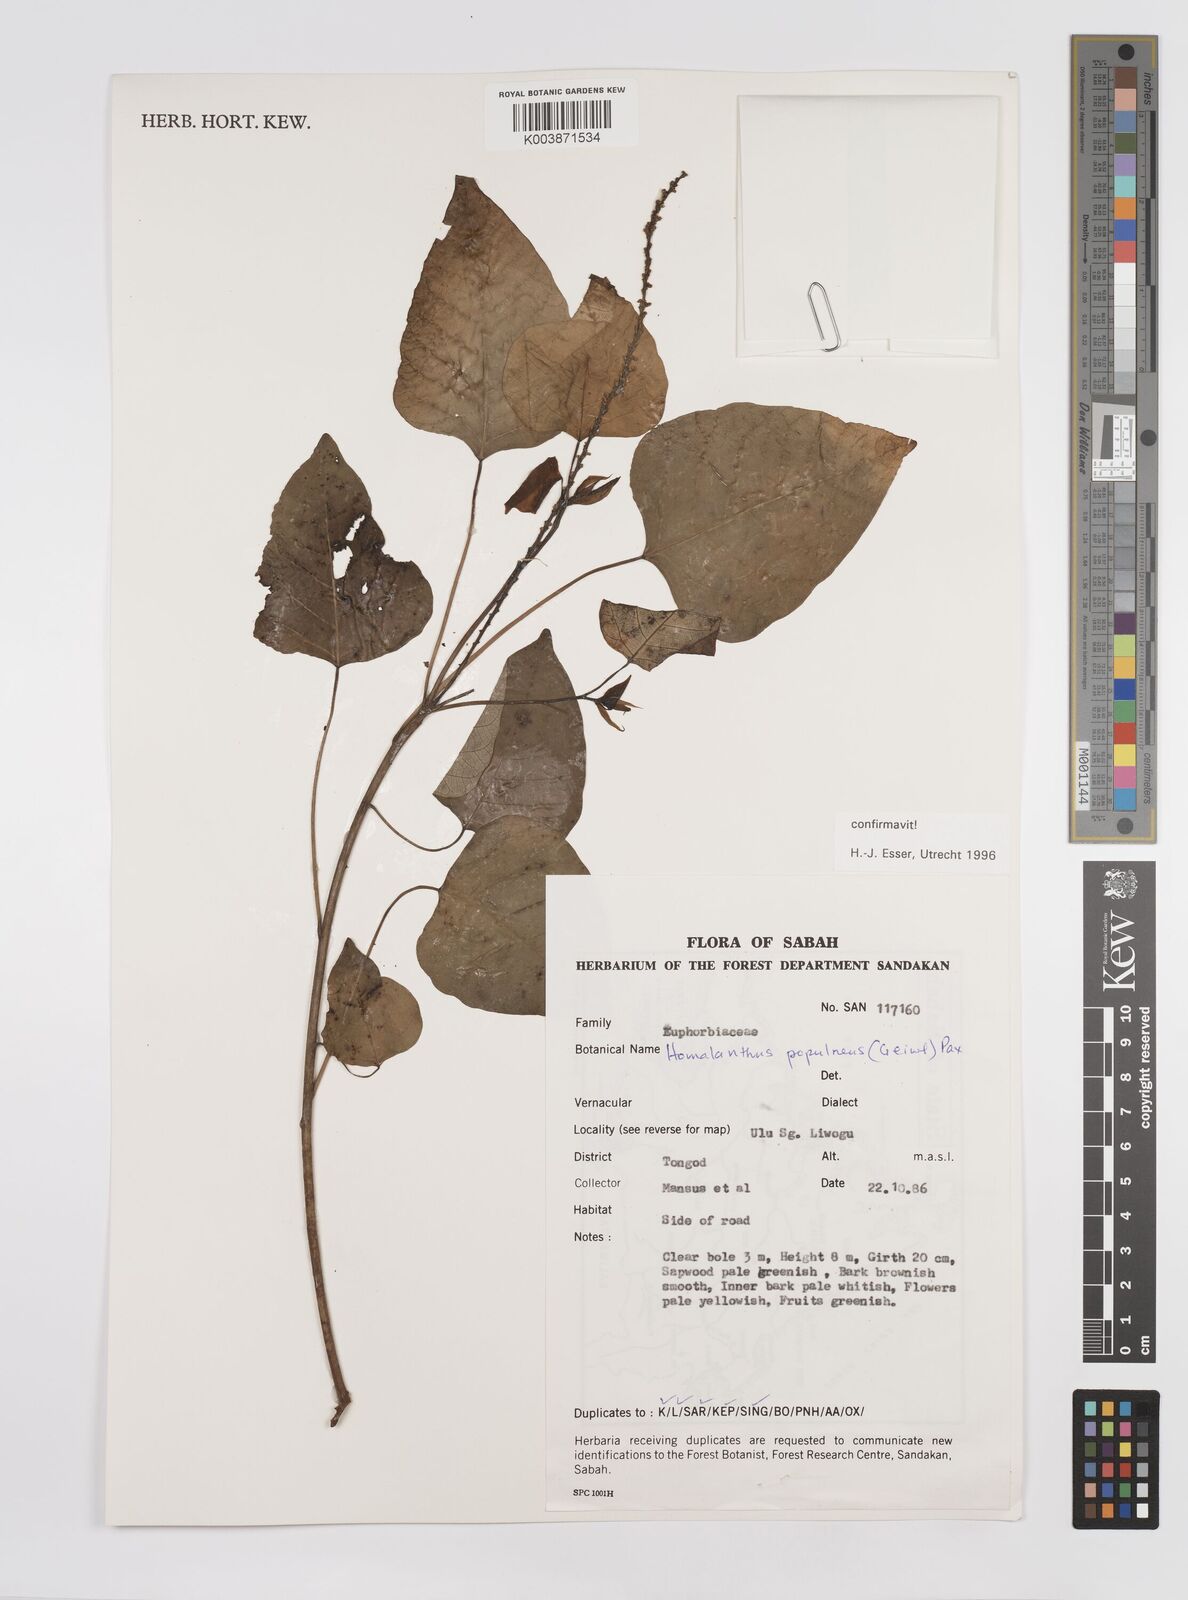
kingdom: Plantae
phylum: Tracheophyta
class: Magnoliopsida
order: Malpighiales
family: Euphorbiaceae
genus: Homalanthus
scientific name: Homalanthus populneus
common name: Spurge
